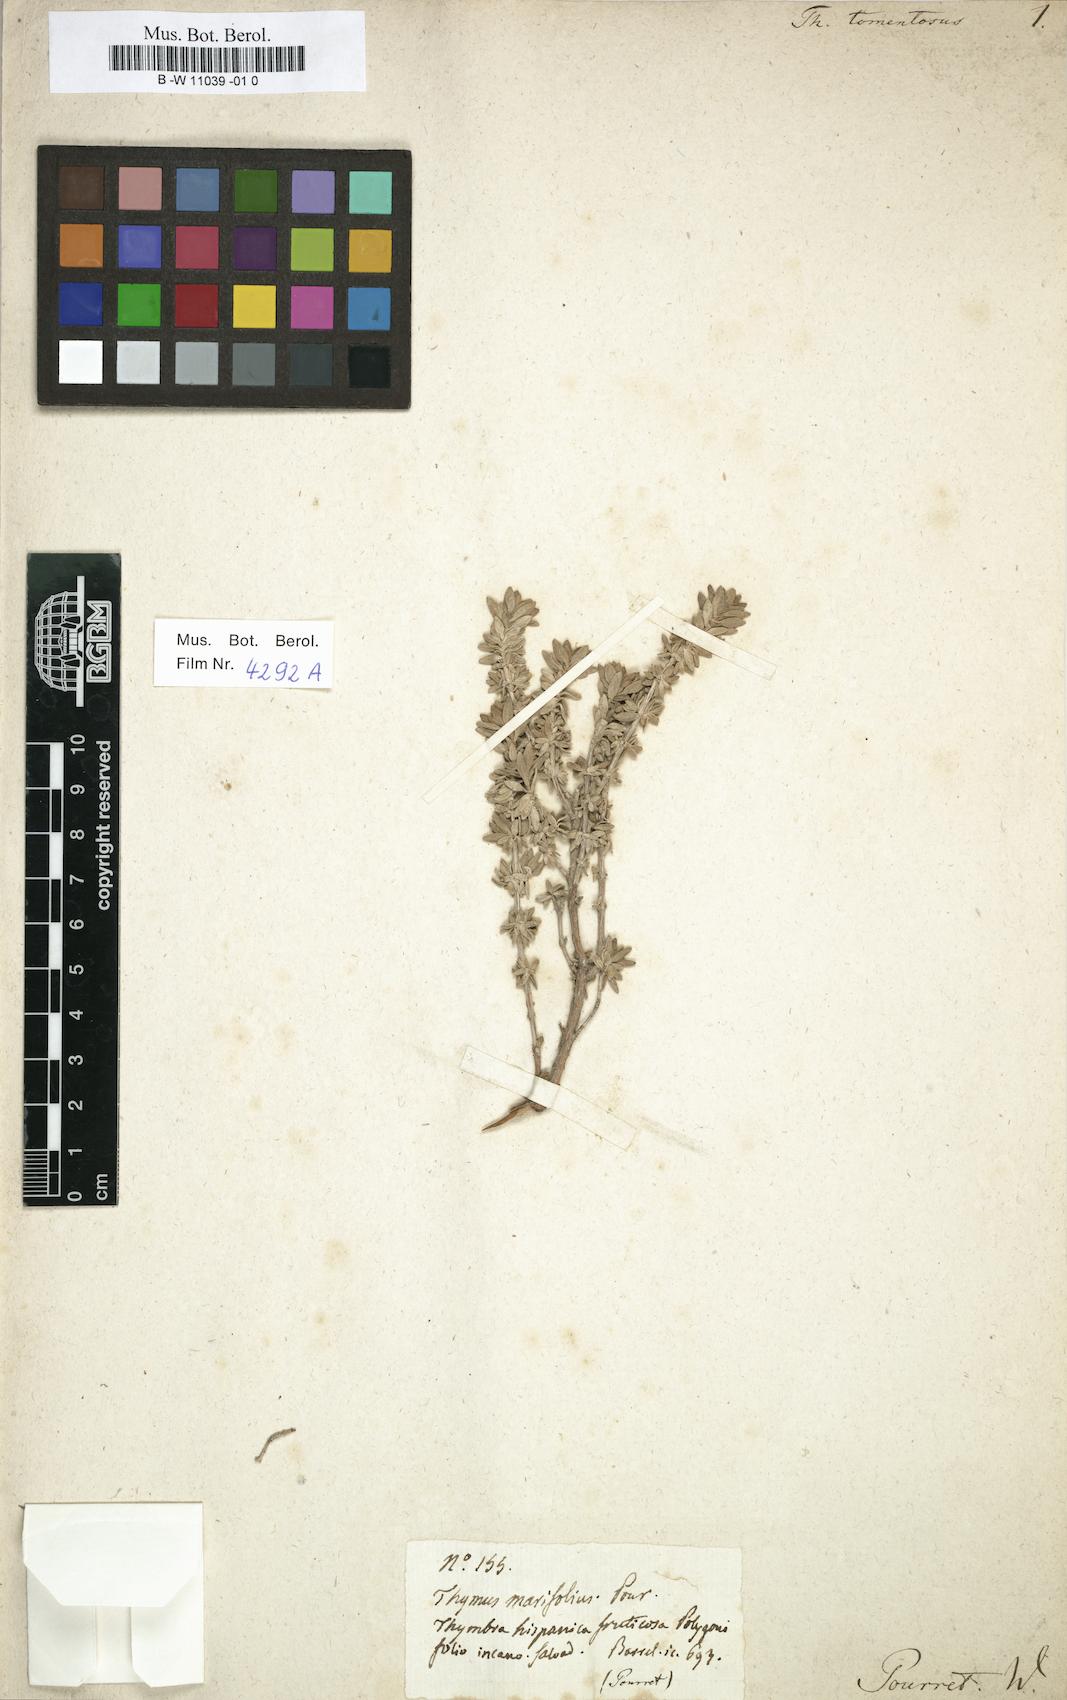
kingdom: Plantae
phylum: Tracheophyta
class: Magnoliopsida
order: Lamiales
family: Lamiaceae
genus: Thymus
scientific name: Thymus mastichina
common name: Mastic thyme
